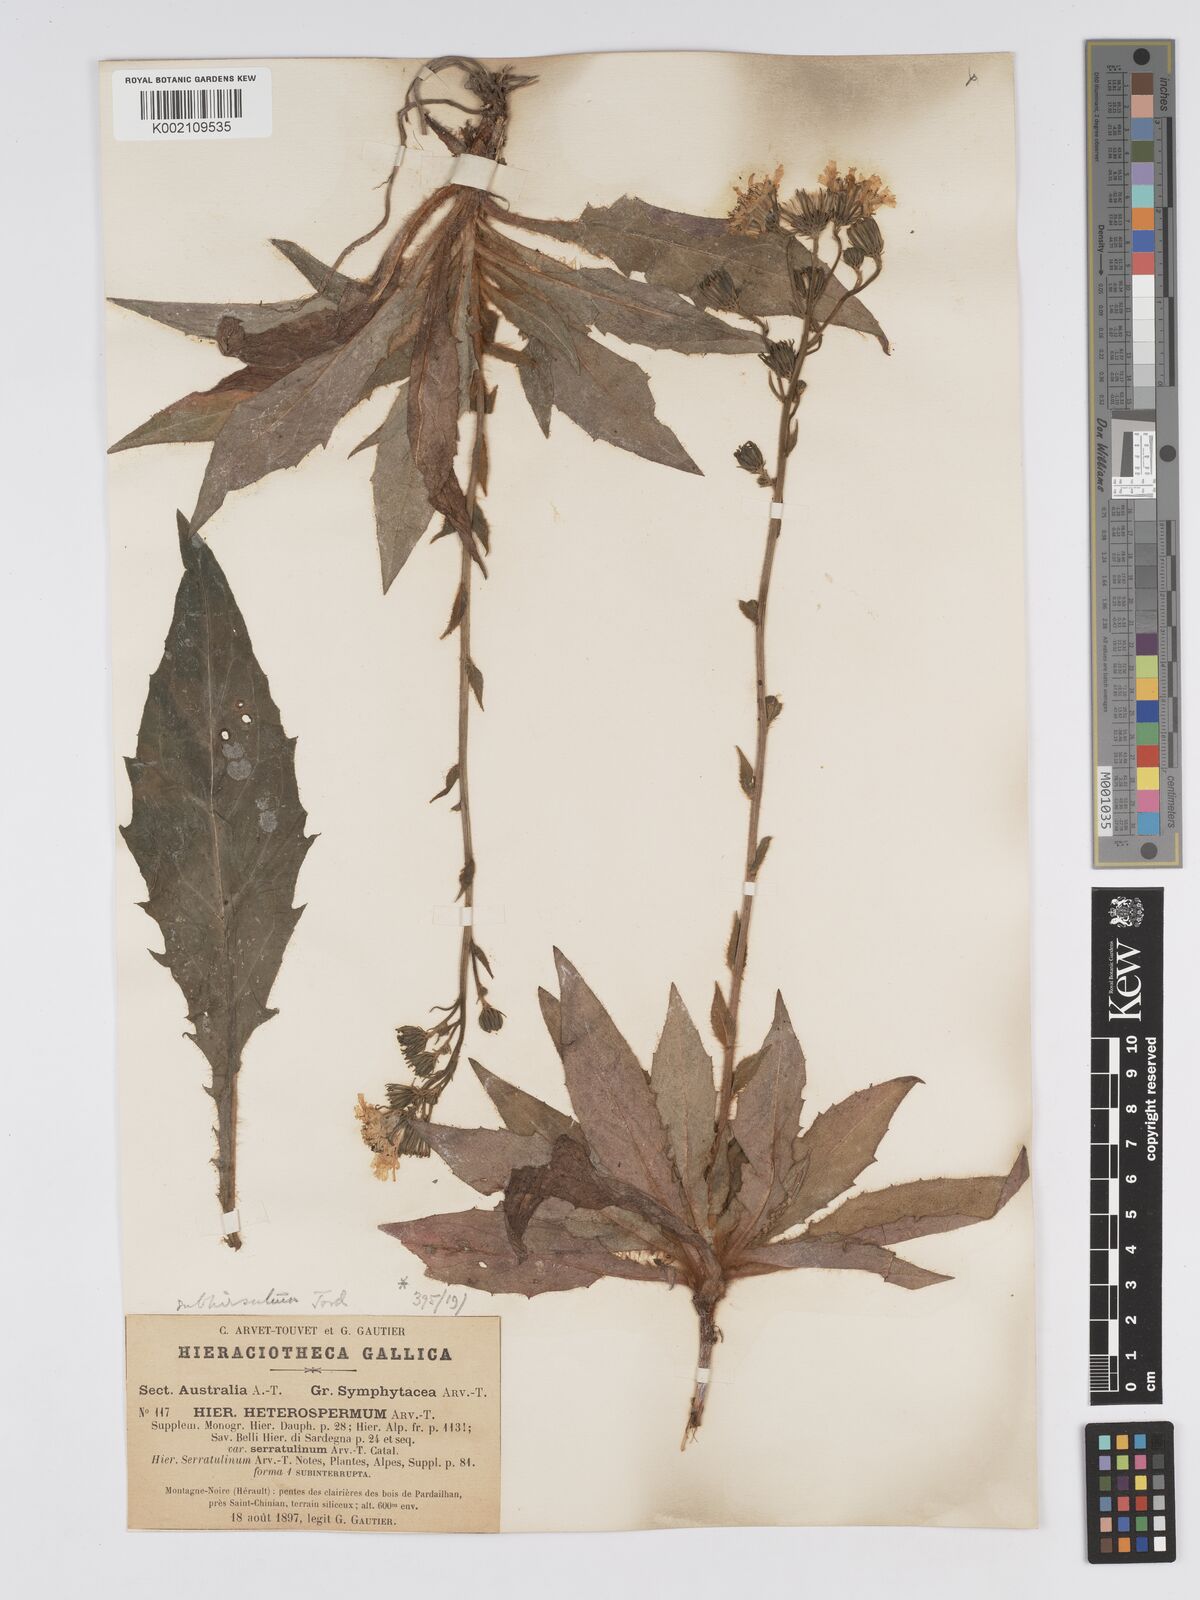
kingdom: Plantae
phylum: Tracheophyta
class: Magnoliopsida
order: Asterales
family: Asteraceae
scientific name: Asteraceae
